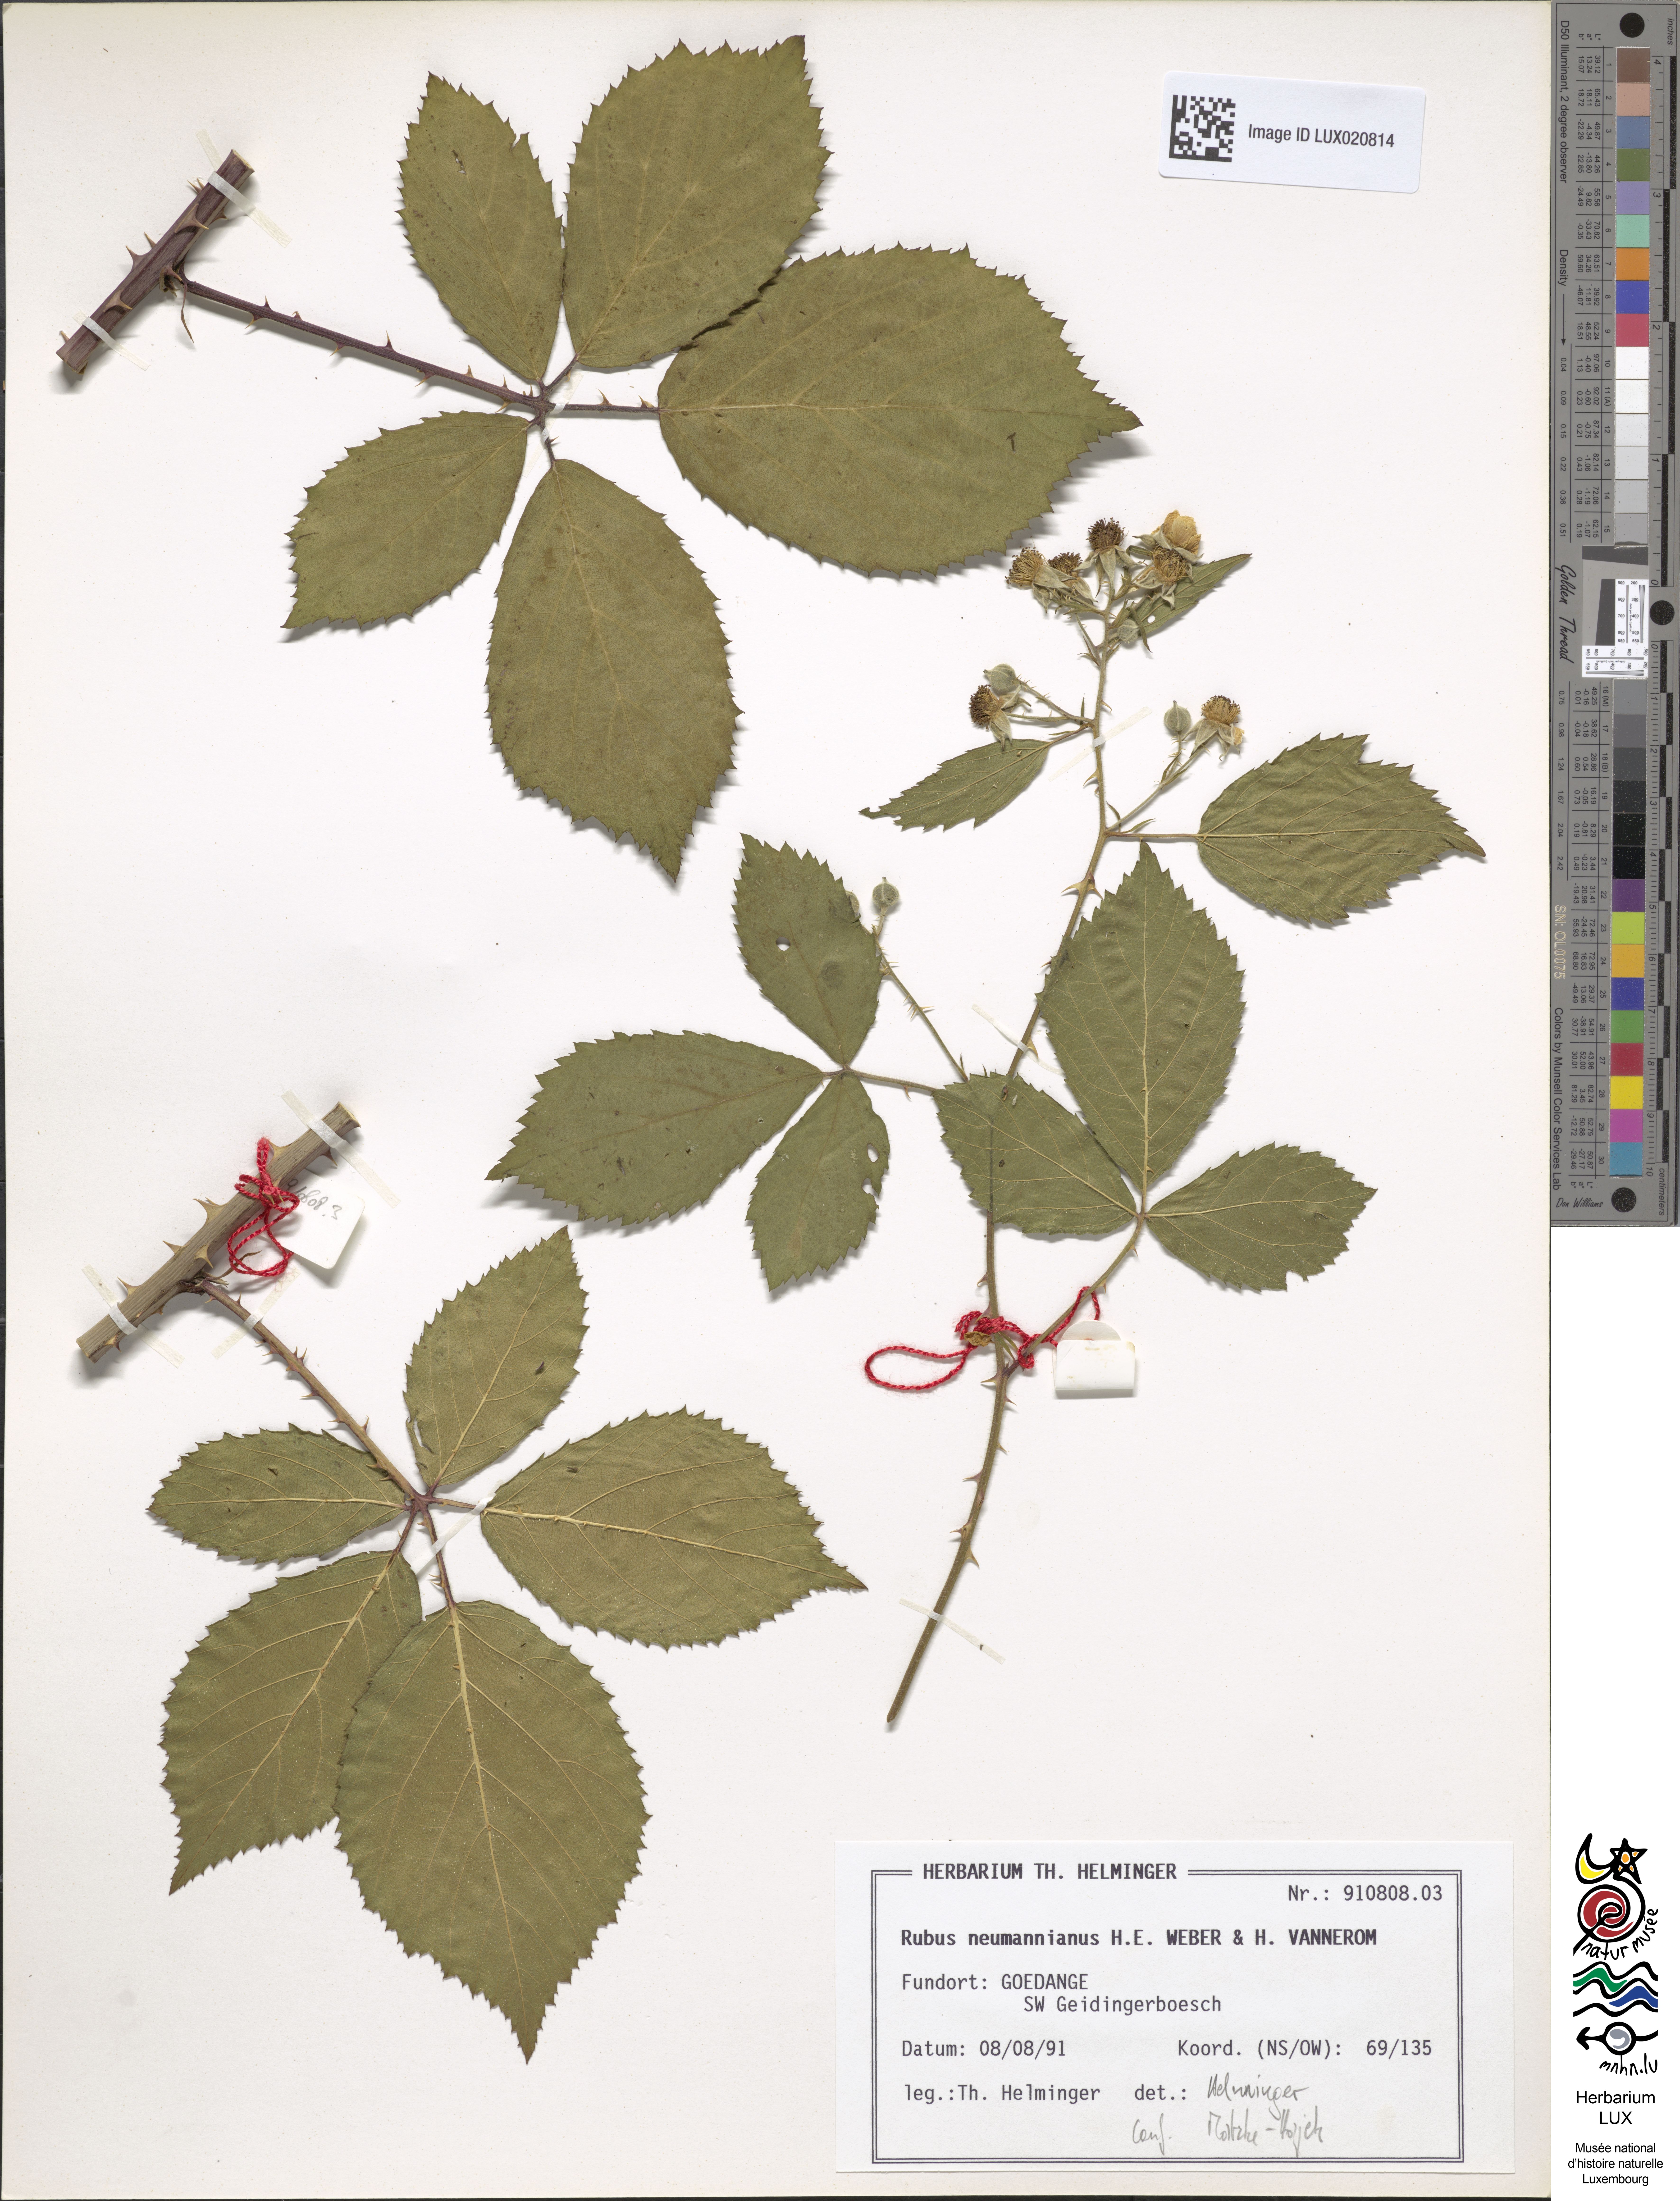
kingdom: Plantae
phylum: Tracheophyta
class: Magnoliopsida
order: Rosales
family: Rosaceae
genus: Rubus
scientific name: Rubus favonii
